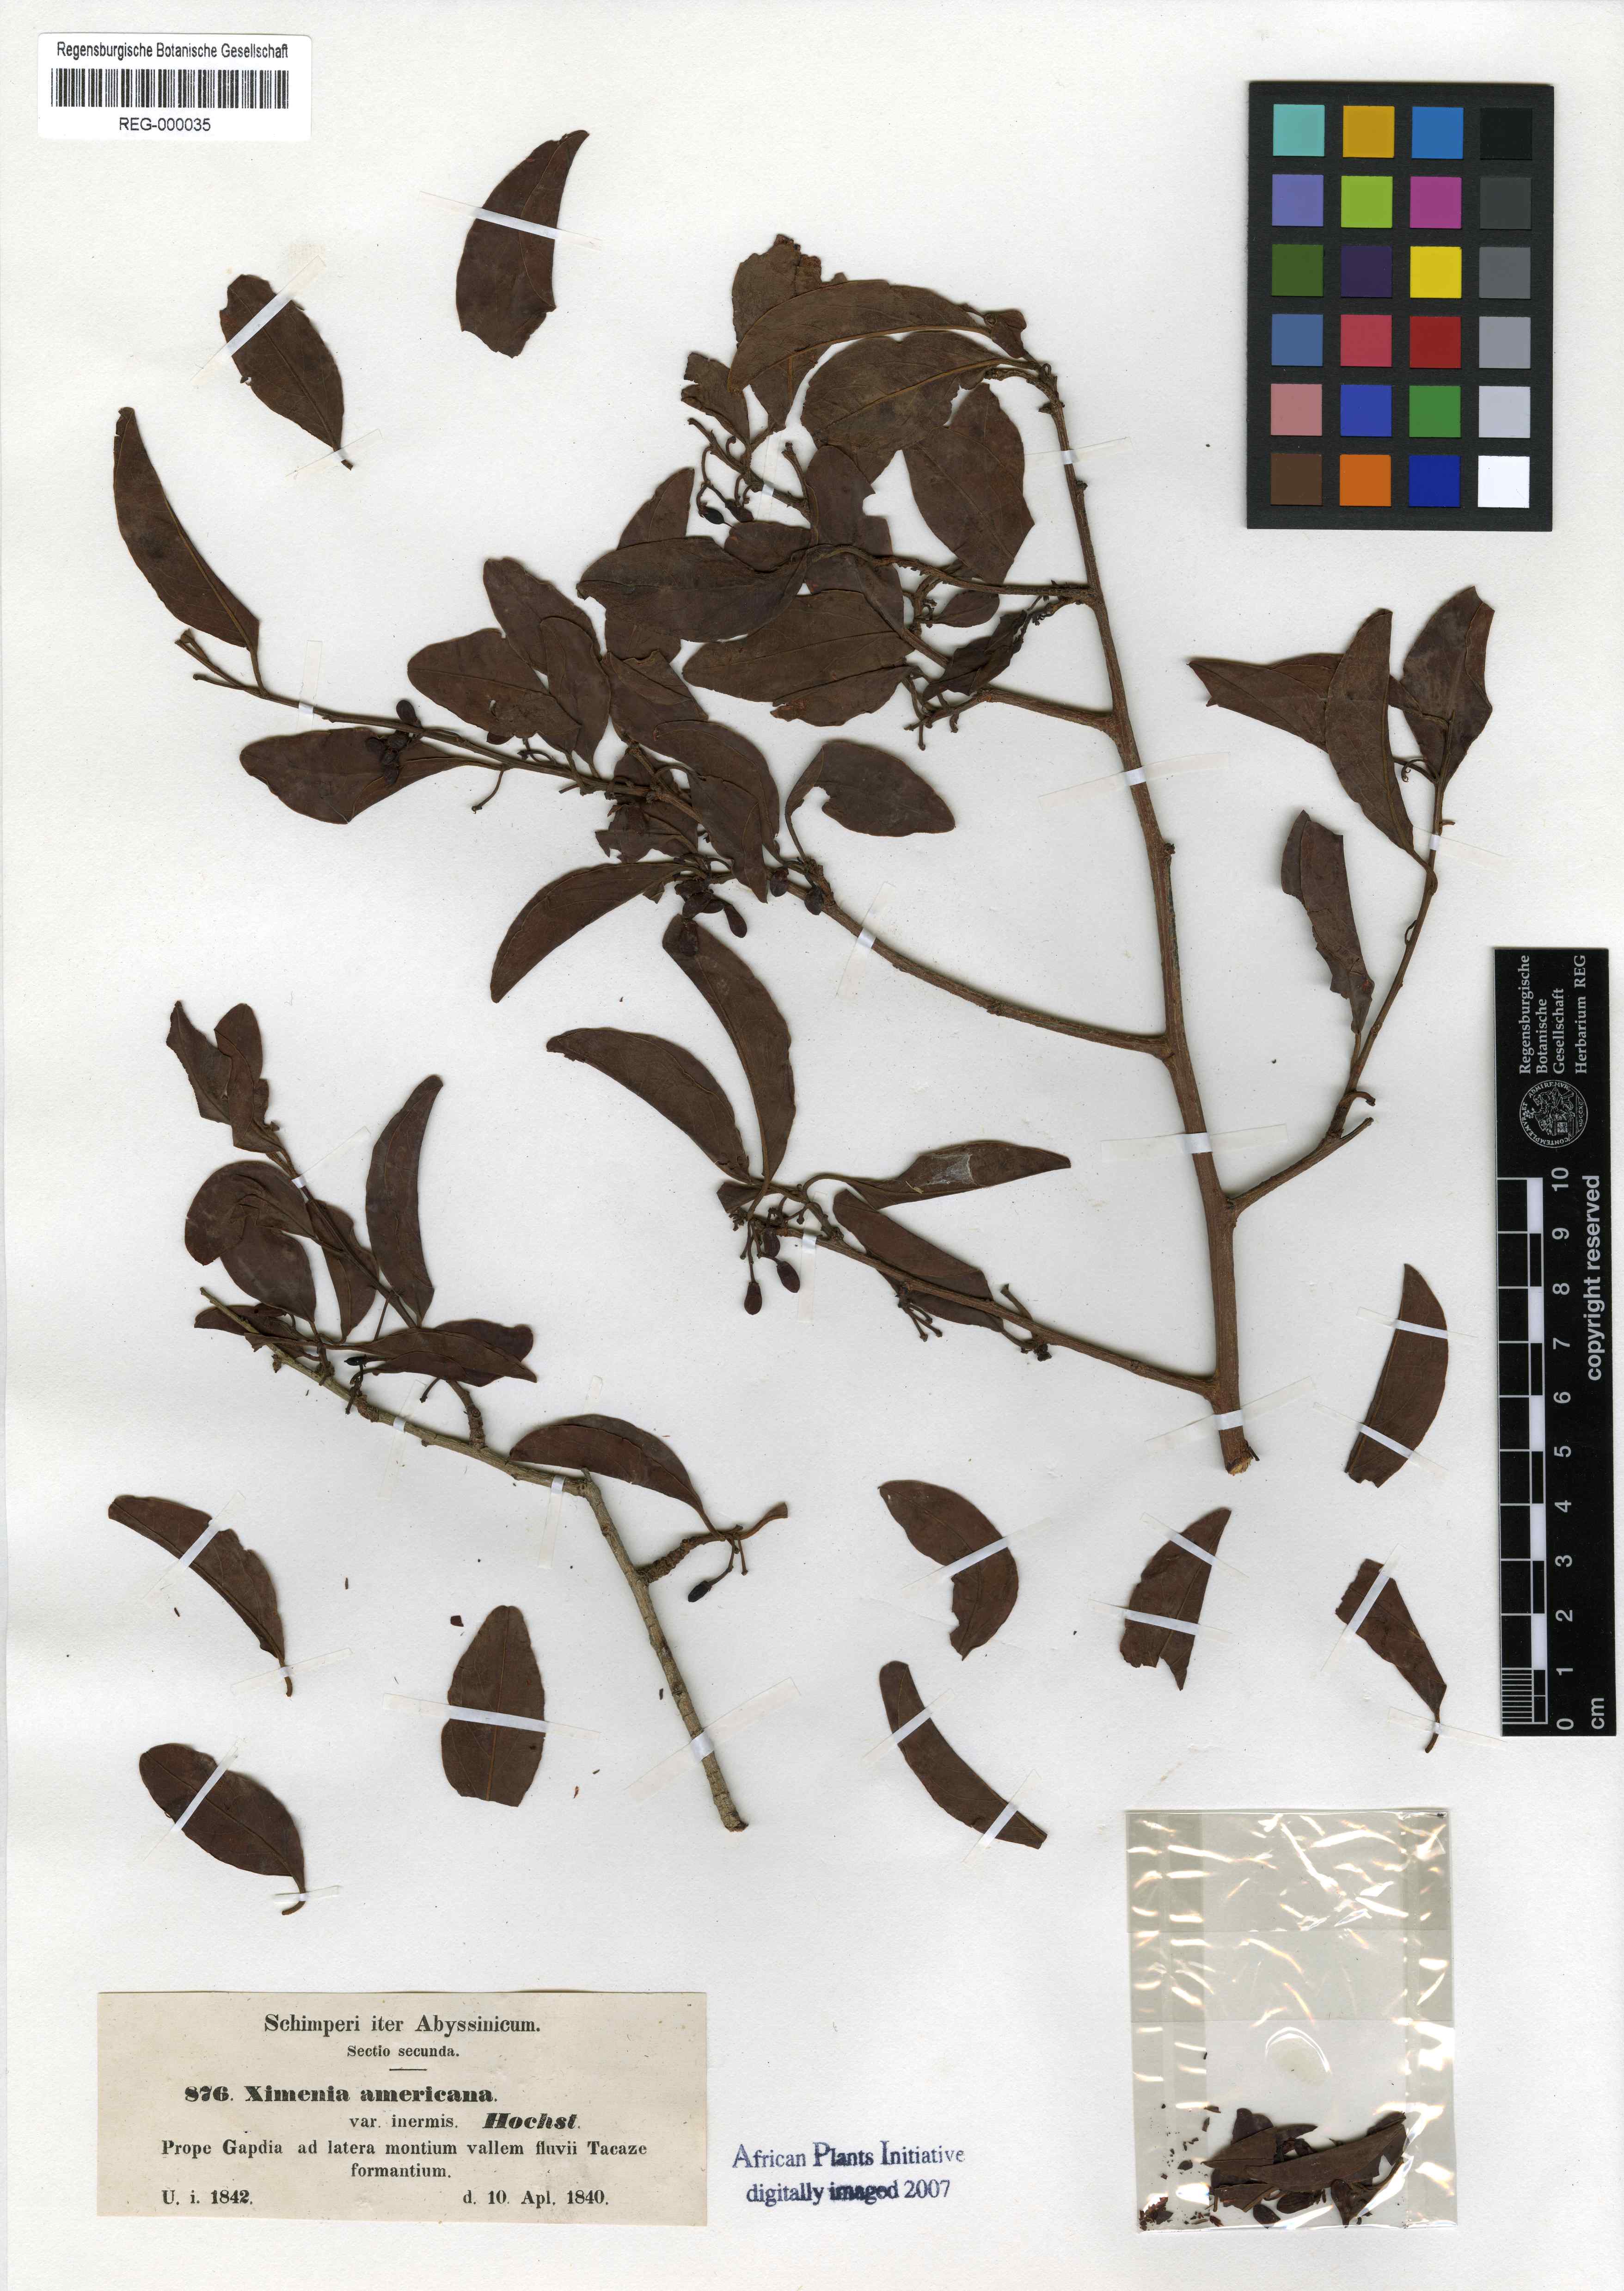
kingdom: Plantae
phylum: Tracheophyta
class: Magnoliopsida
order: Santalales
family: Ximeniaceae
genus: Ximenia
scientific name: Ximenia americana
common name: Tallowwood
